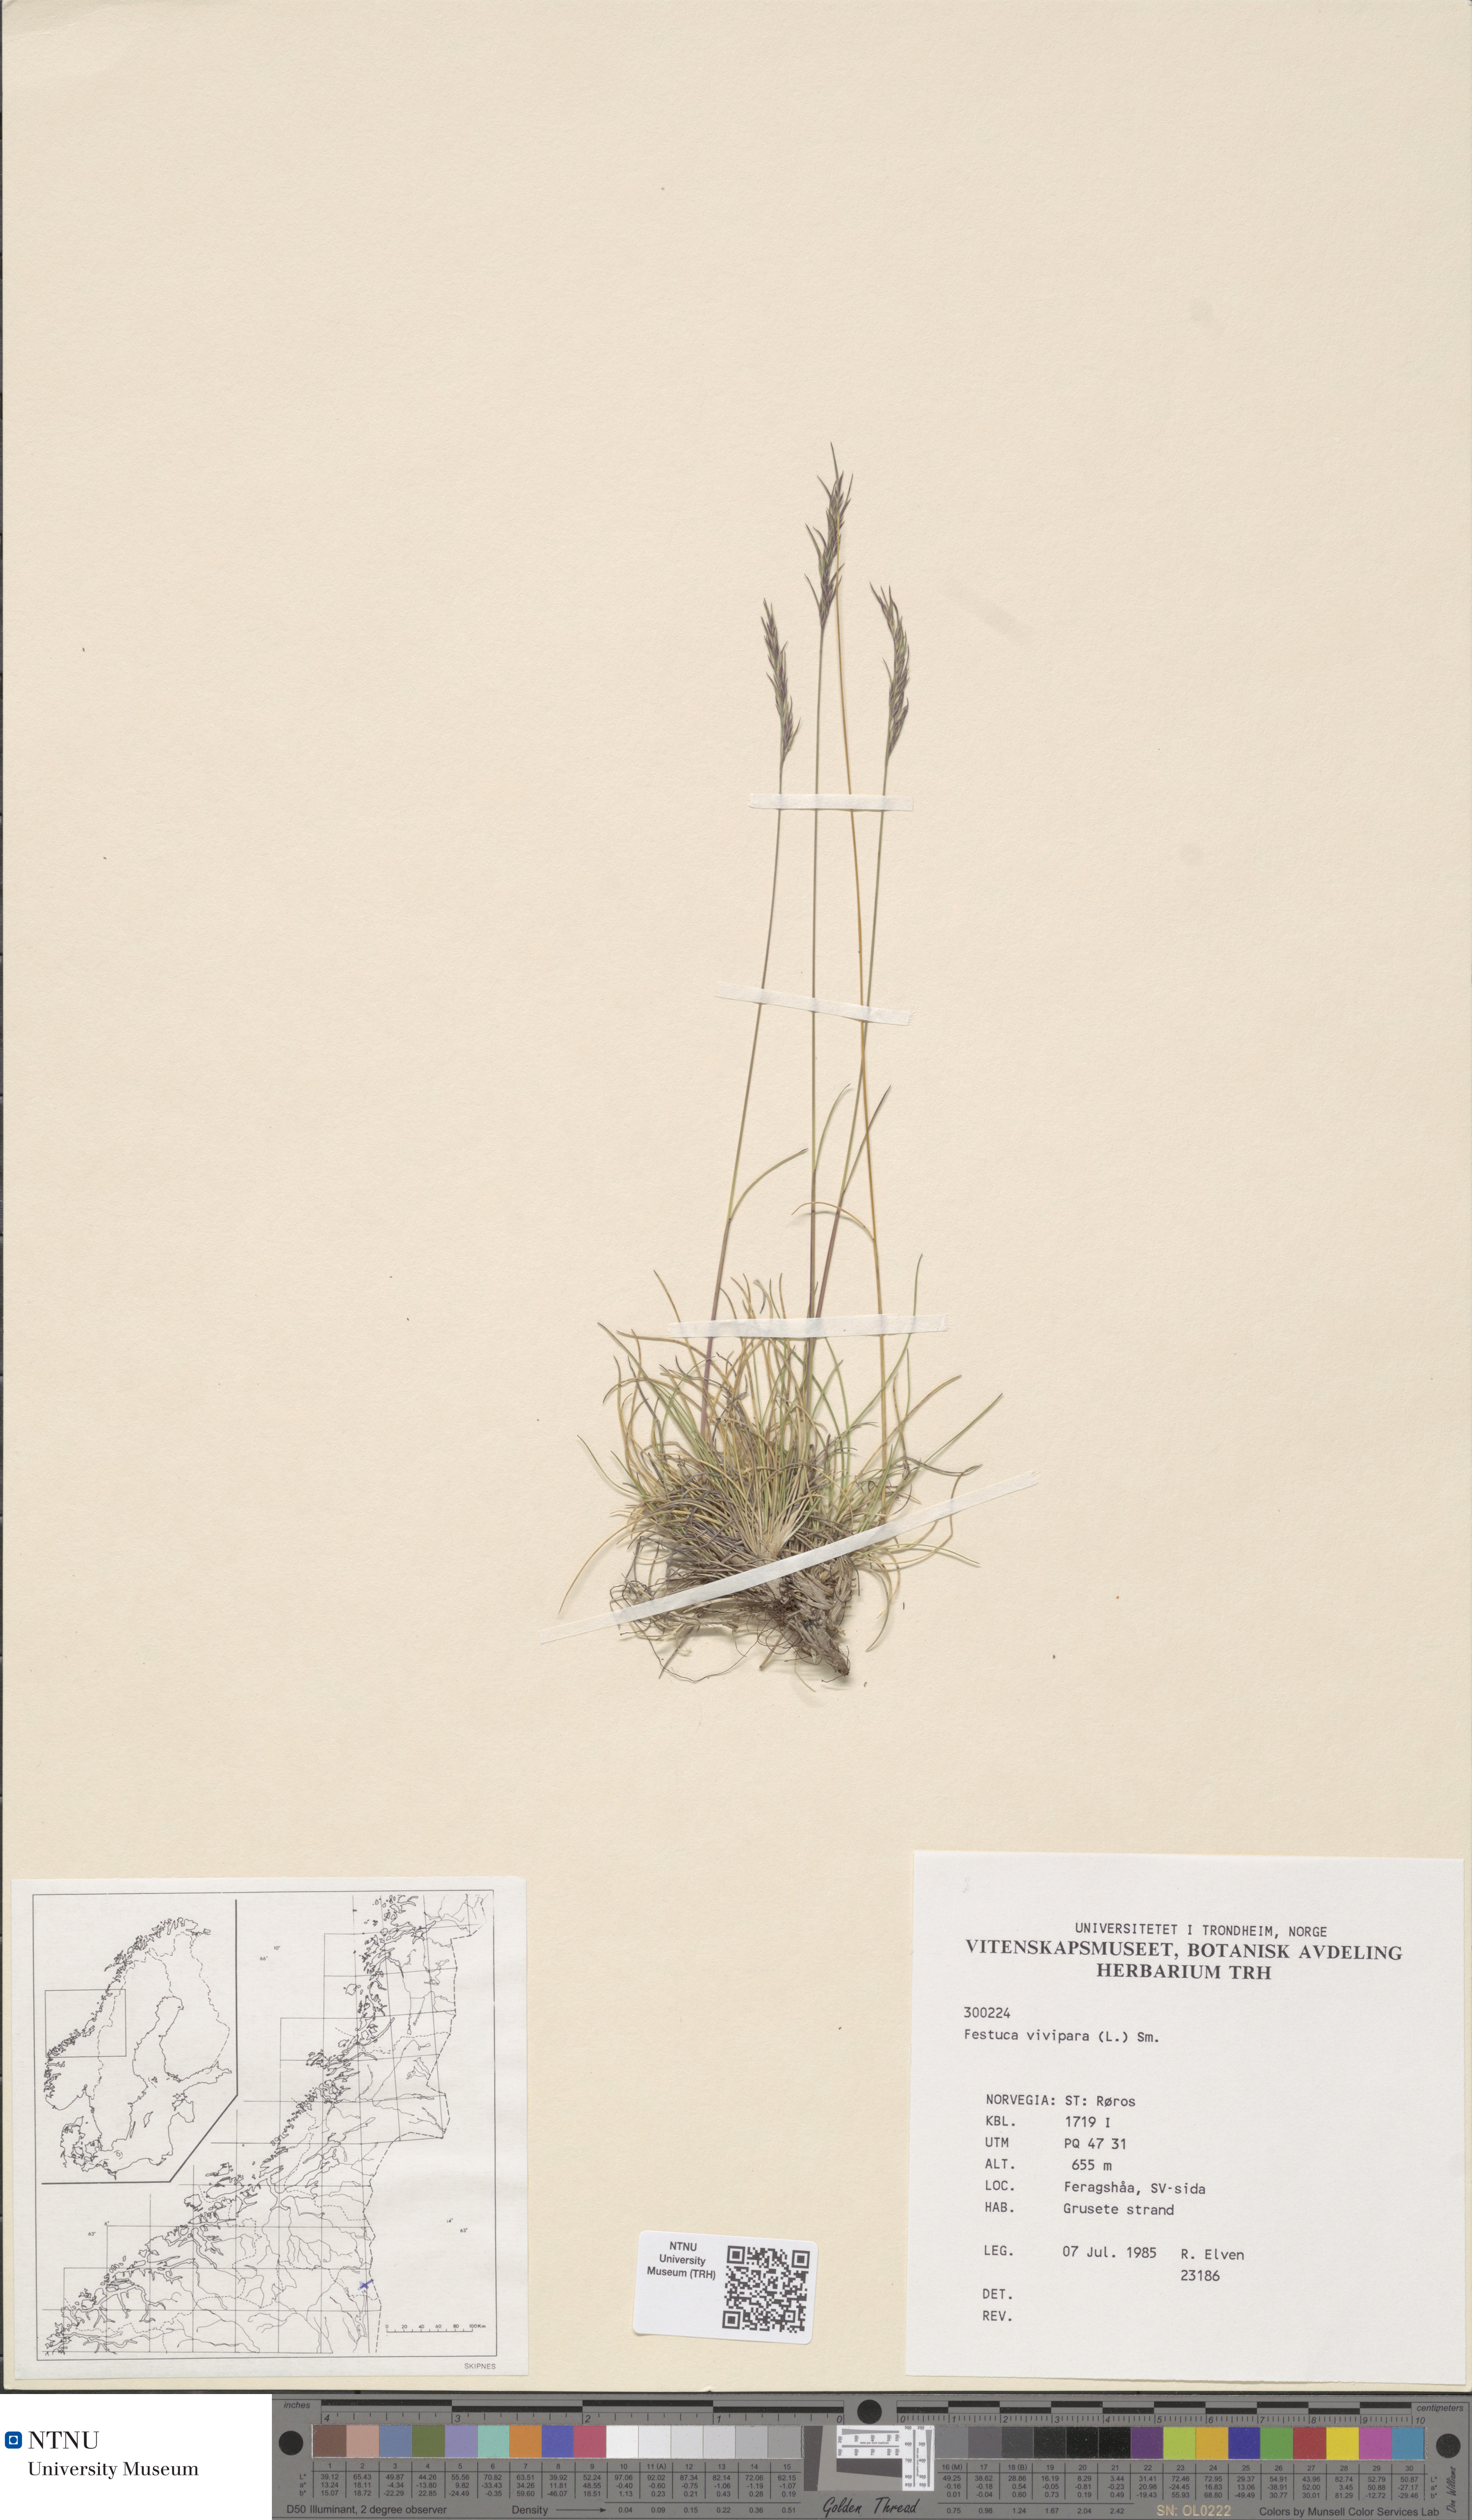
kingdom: Plantae
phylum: Tracheophyta
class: Liliopsida
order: Poales
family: Poaceae
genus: Festuca
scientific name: Festuca vivipara
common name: Viviparous sheep's-fescue
